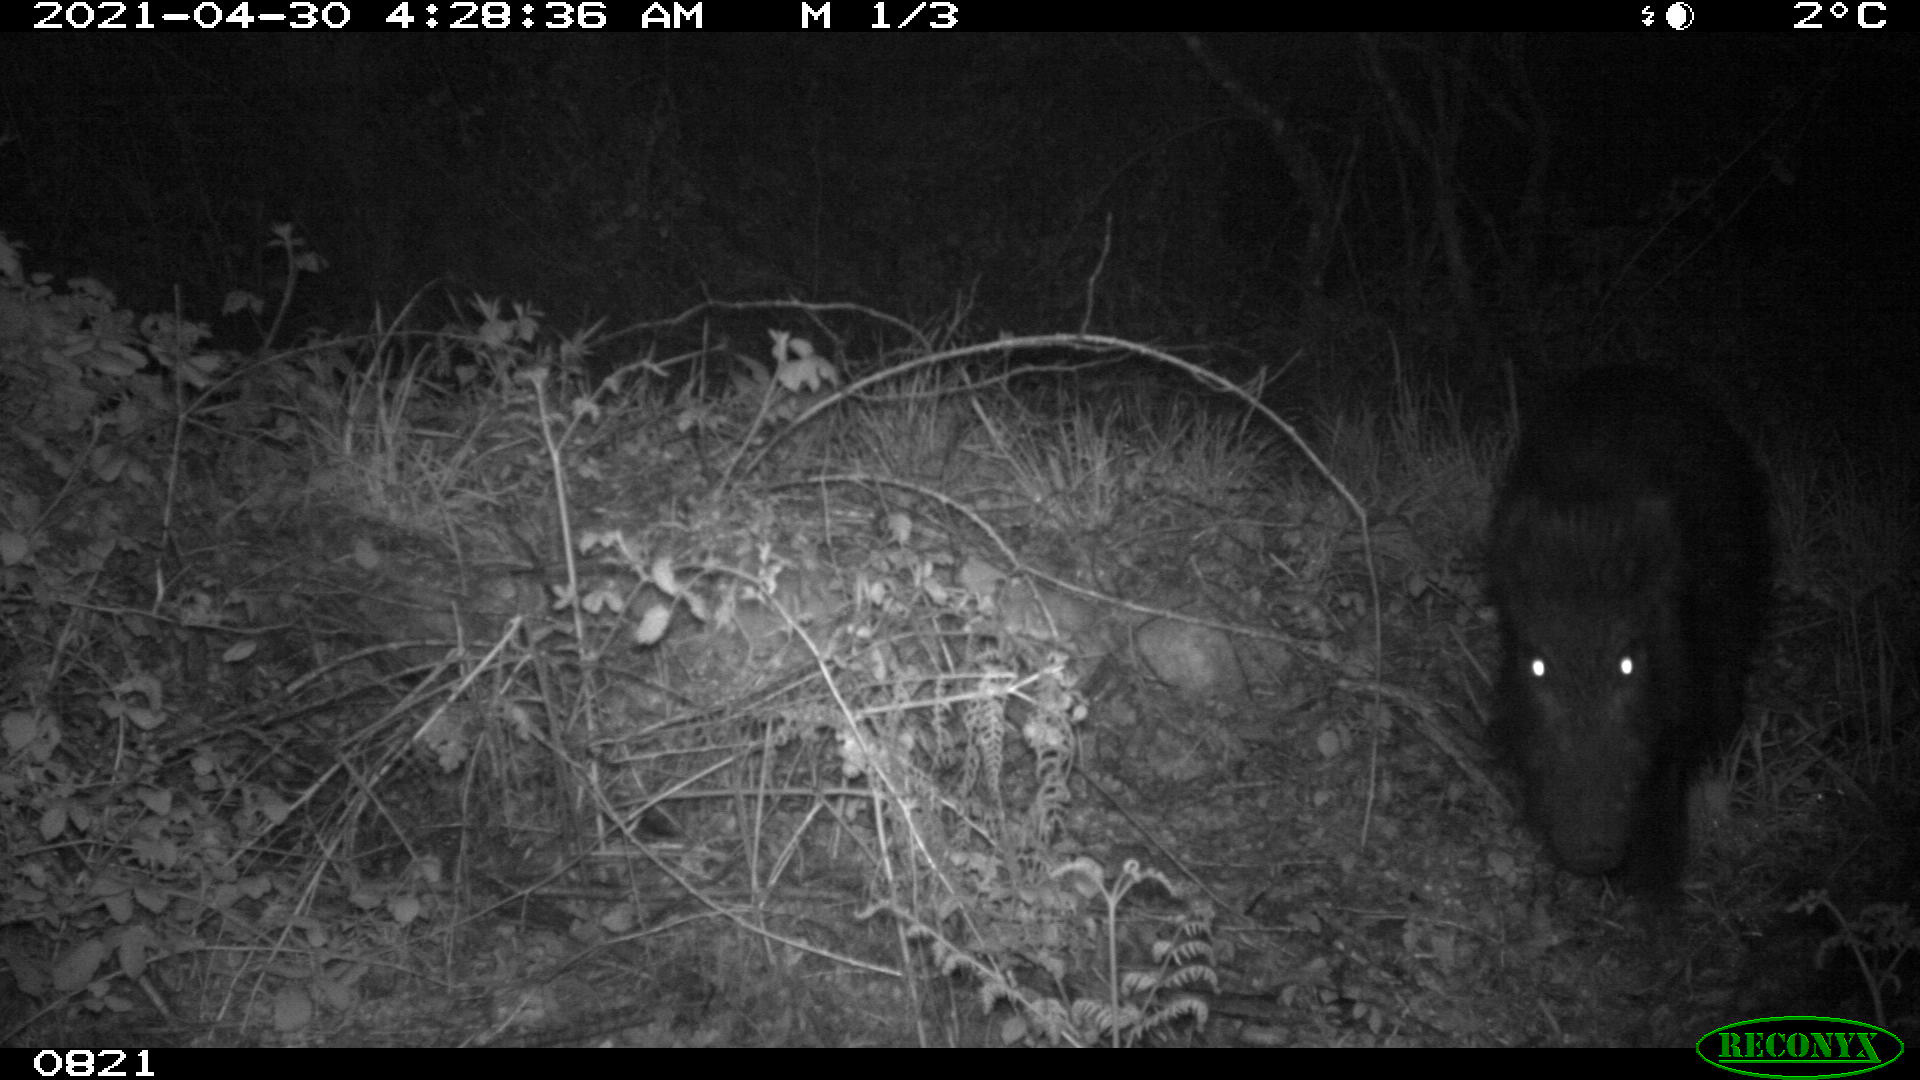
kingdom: Animalia
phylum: Chordata
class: Mammalia
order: Artiodactyla
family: Suidae
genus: Sus
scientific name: Sus scrofa
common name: Wild boar
